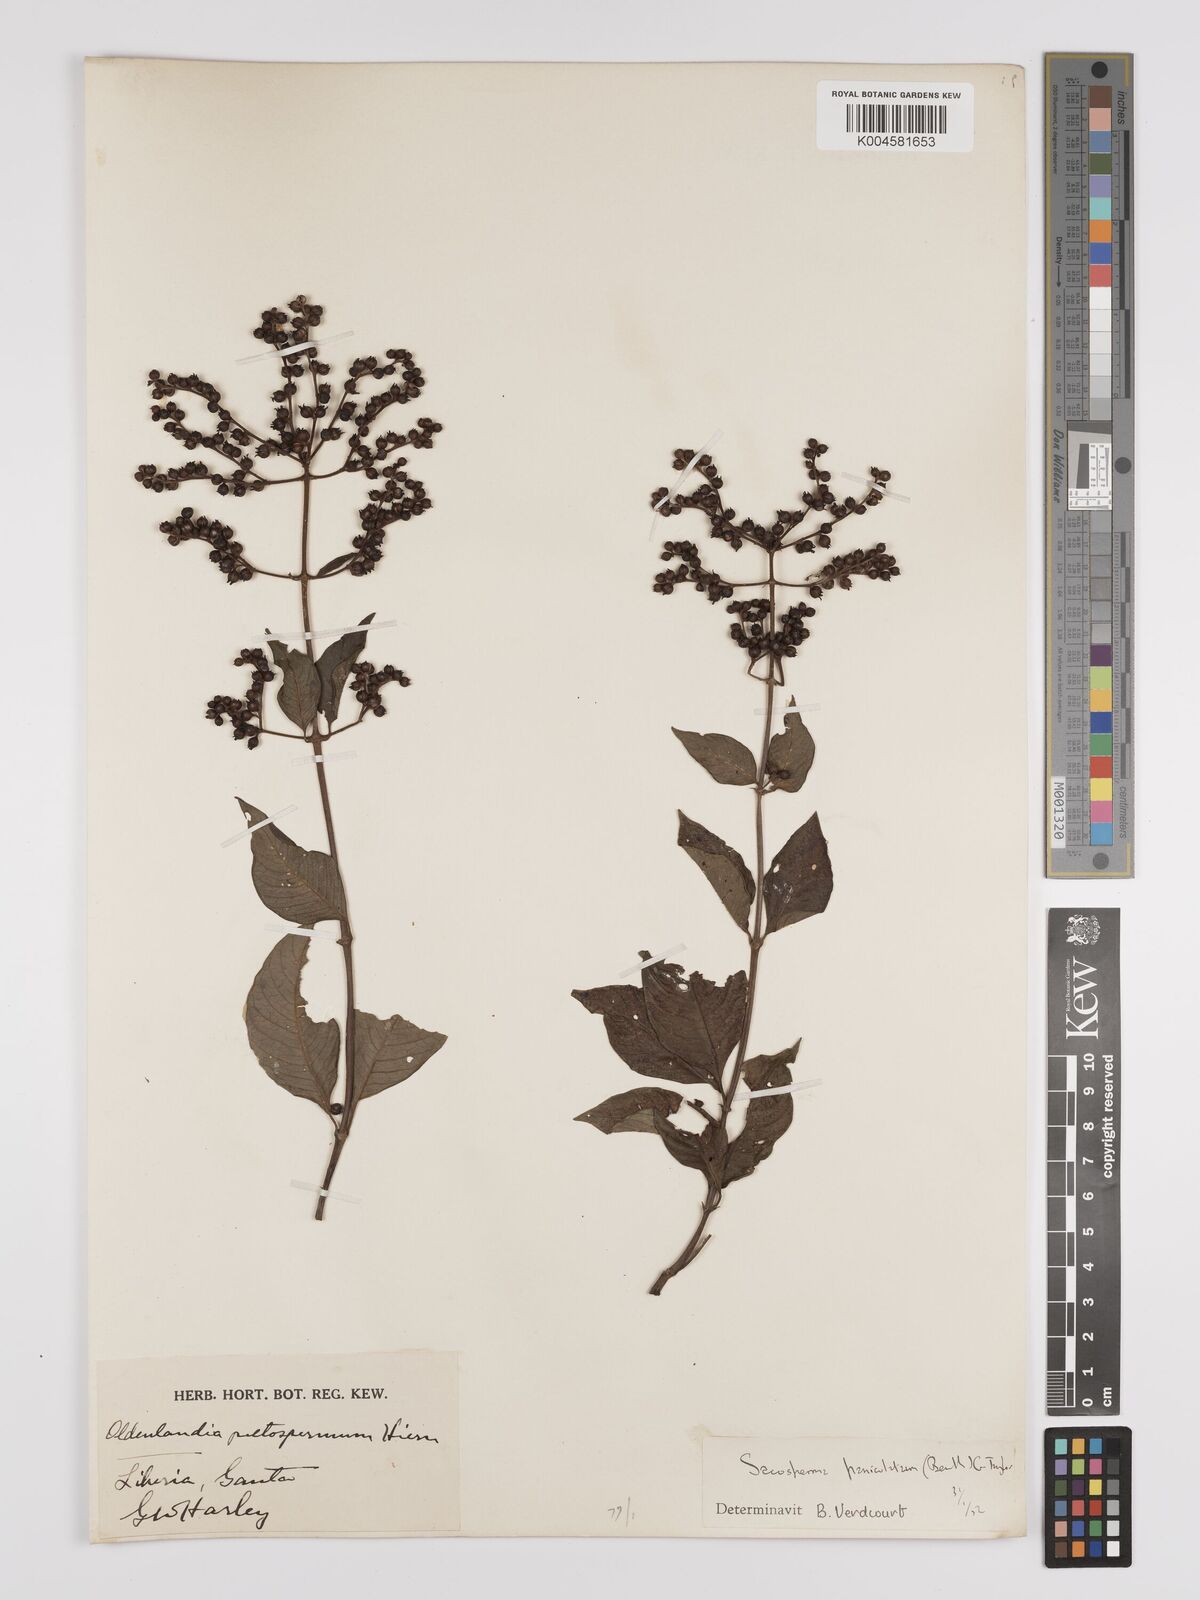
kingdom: Plantae
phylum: Tracheophyta
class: Magnoliopsida
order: Gentianales
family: Rubiaceae
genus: Sacosperma
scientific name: Sacosperma paniculatum
